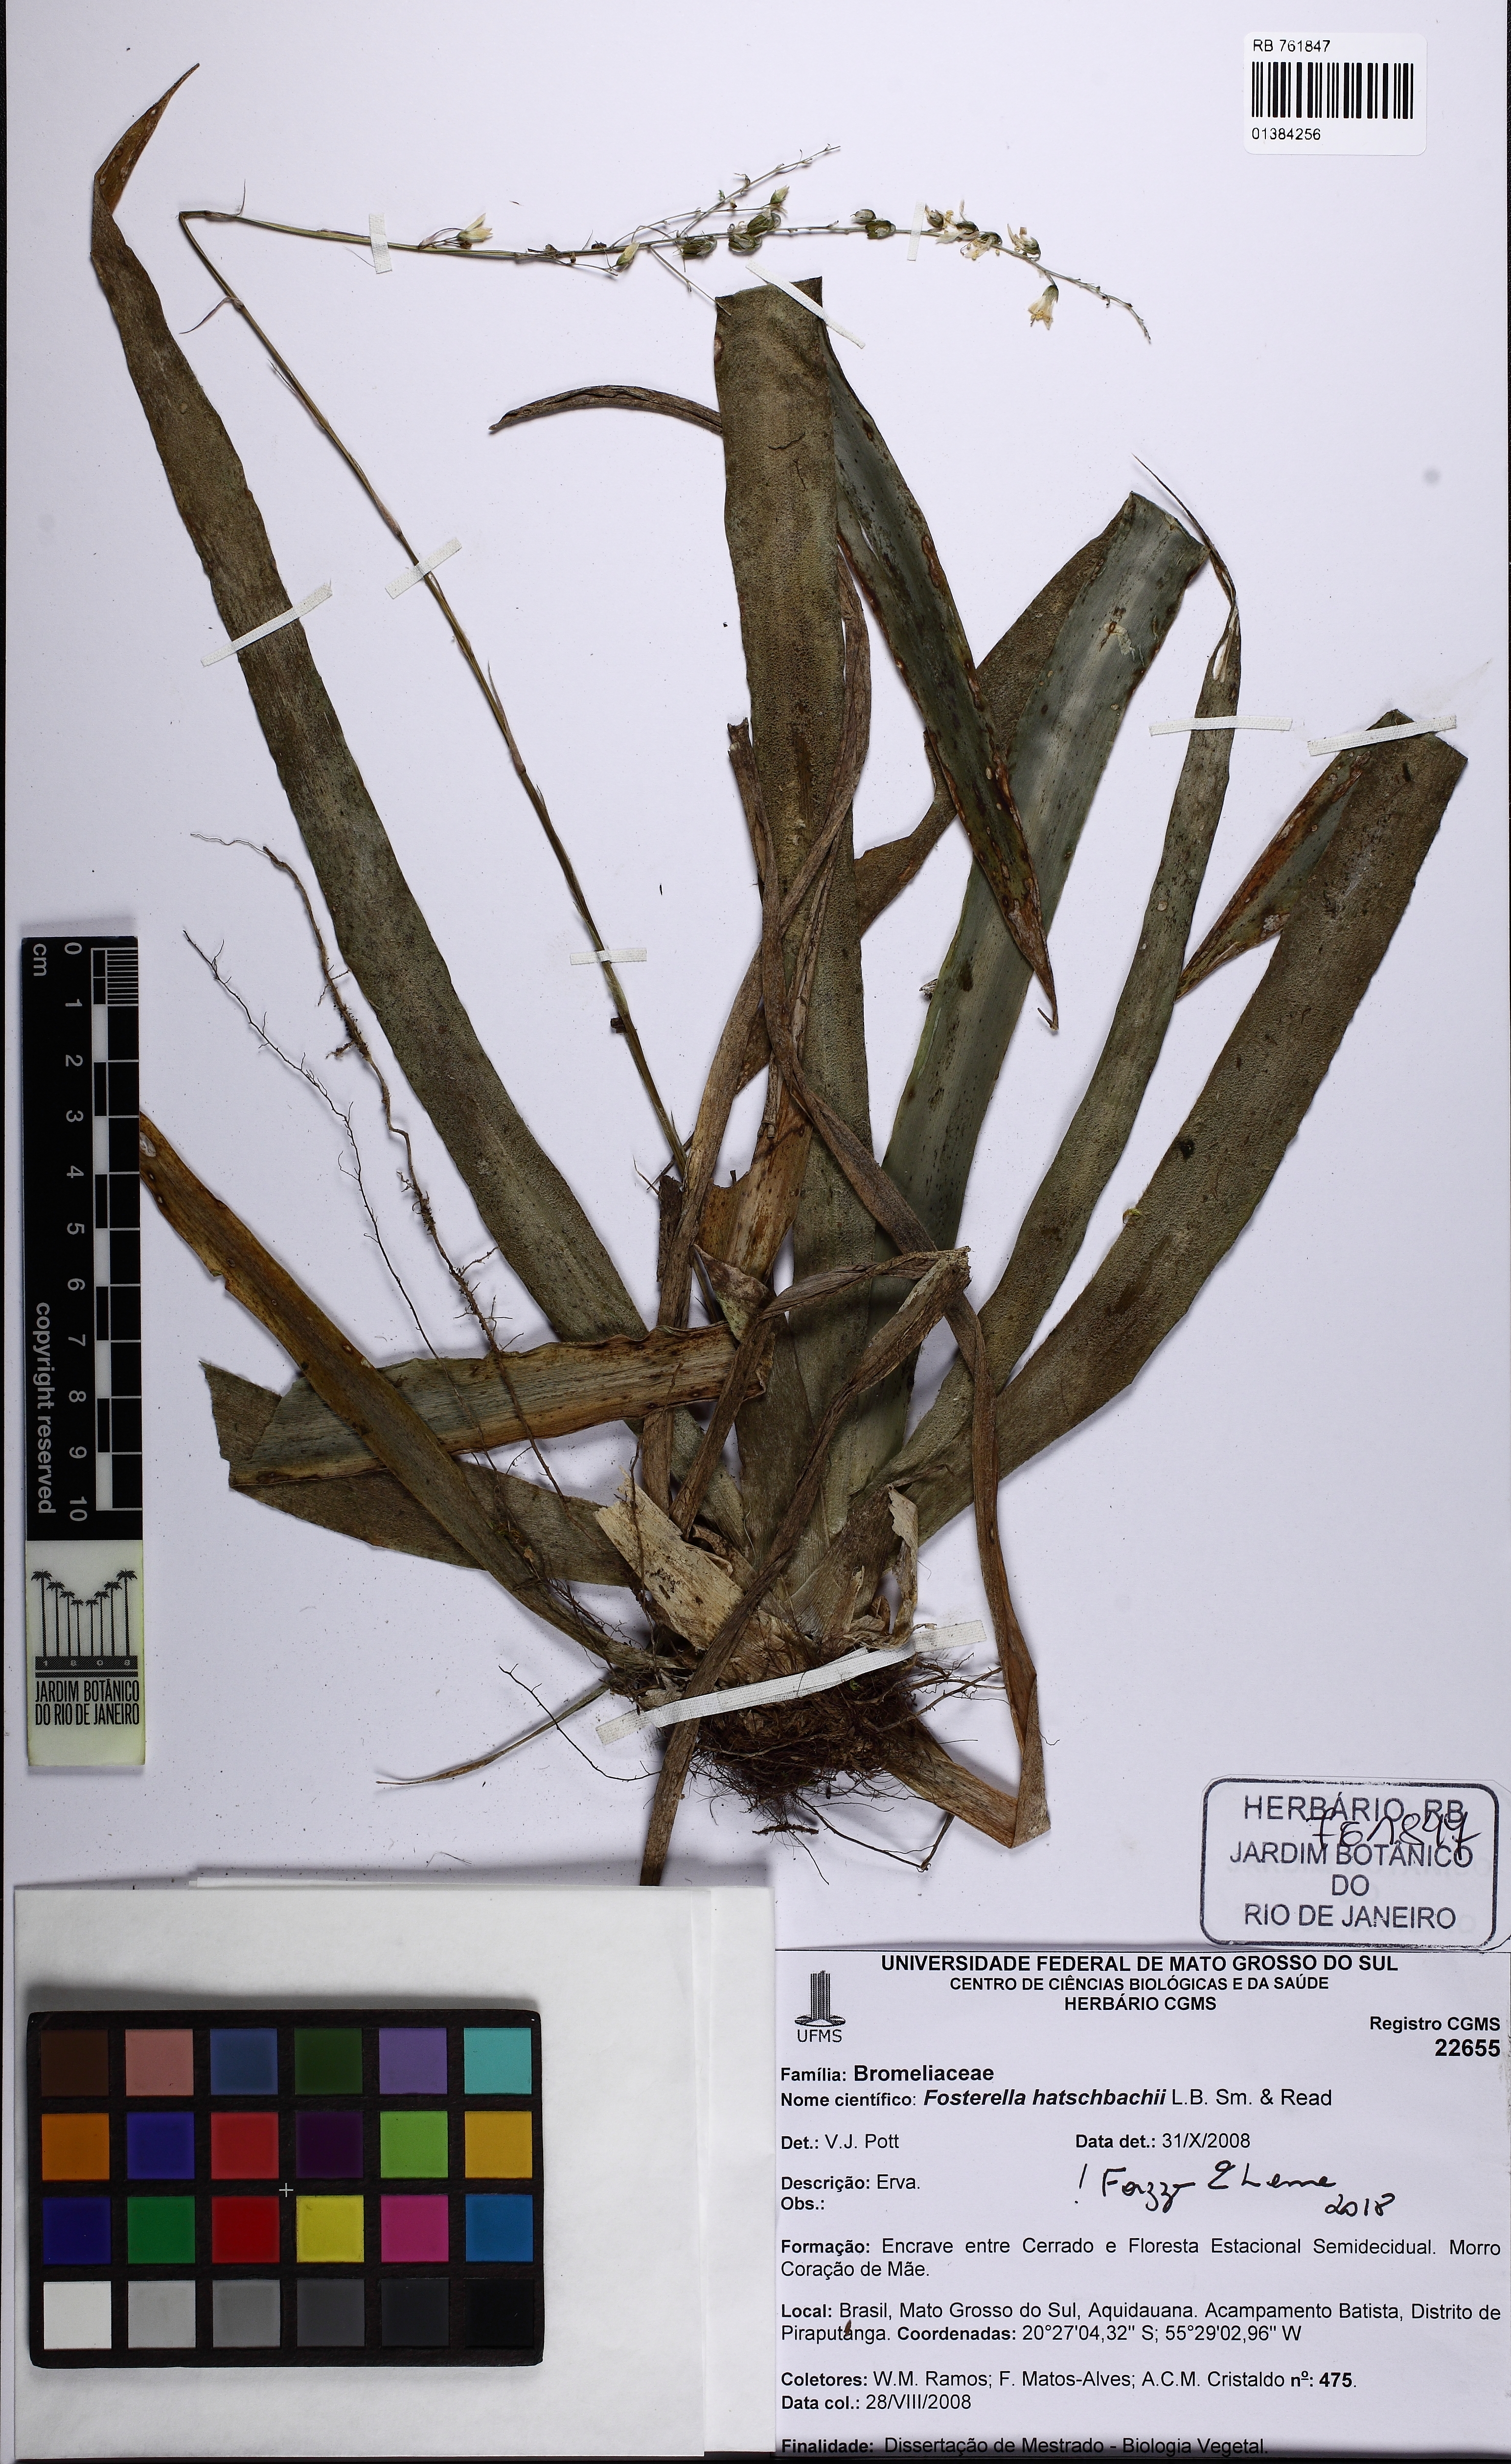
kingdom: Plantae
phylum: Tracheophyta
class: Liliopsida
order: Poales
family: Bromeliaceae
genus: Fosterella
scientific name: Fosterella hatschbachii
